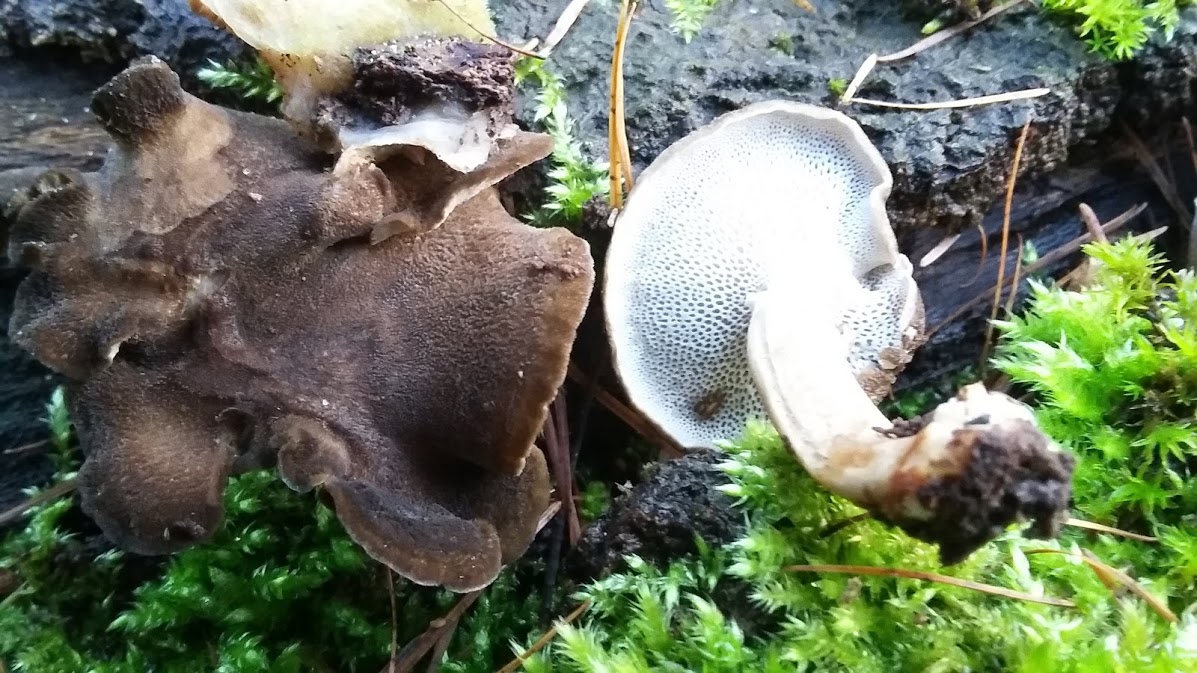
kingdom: Fungi
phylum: Basidiomycota
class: Agaricomycetes
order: Polyporales
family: Polyporaceae
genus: Lentinus
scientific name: Lentinus brumalis
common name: vinter-stilkporesvamp
